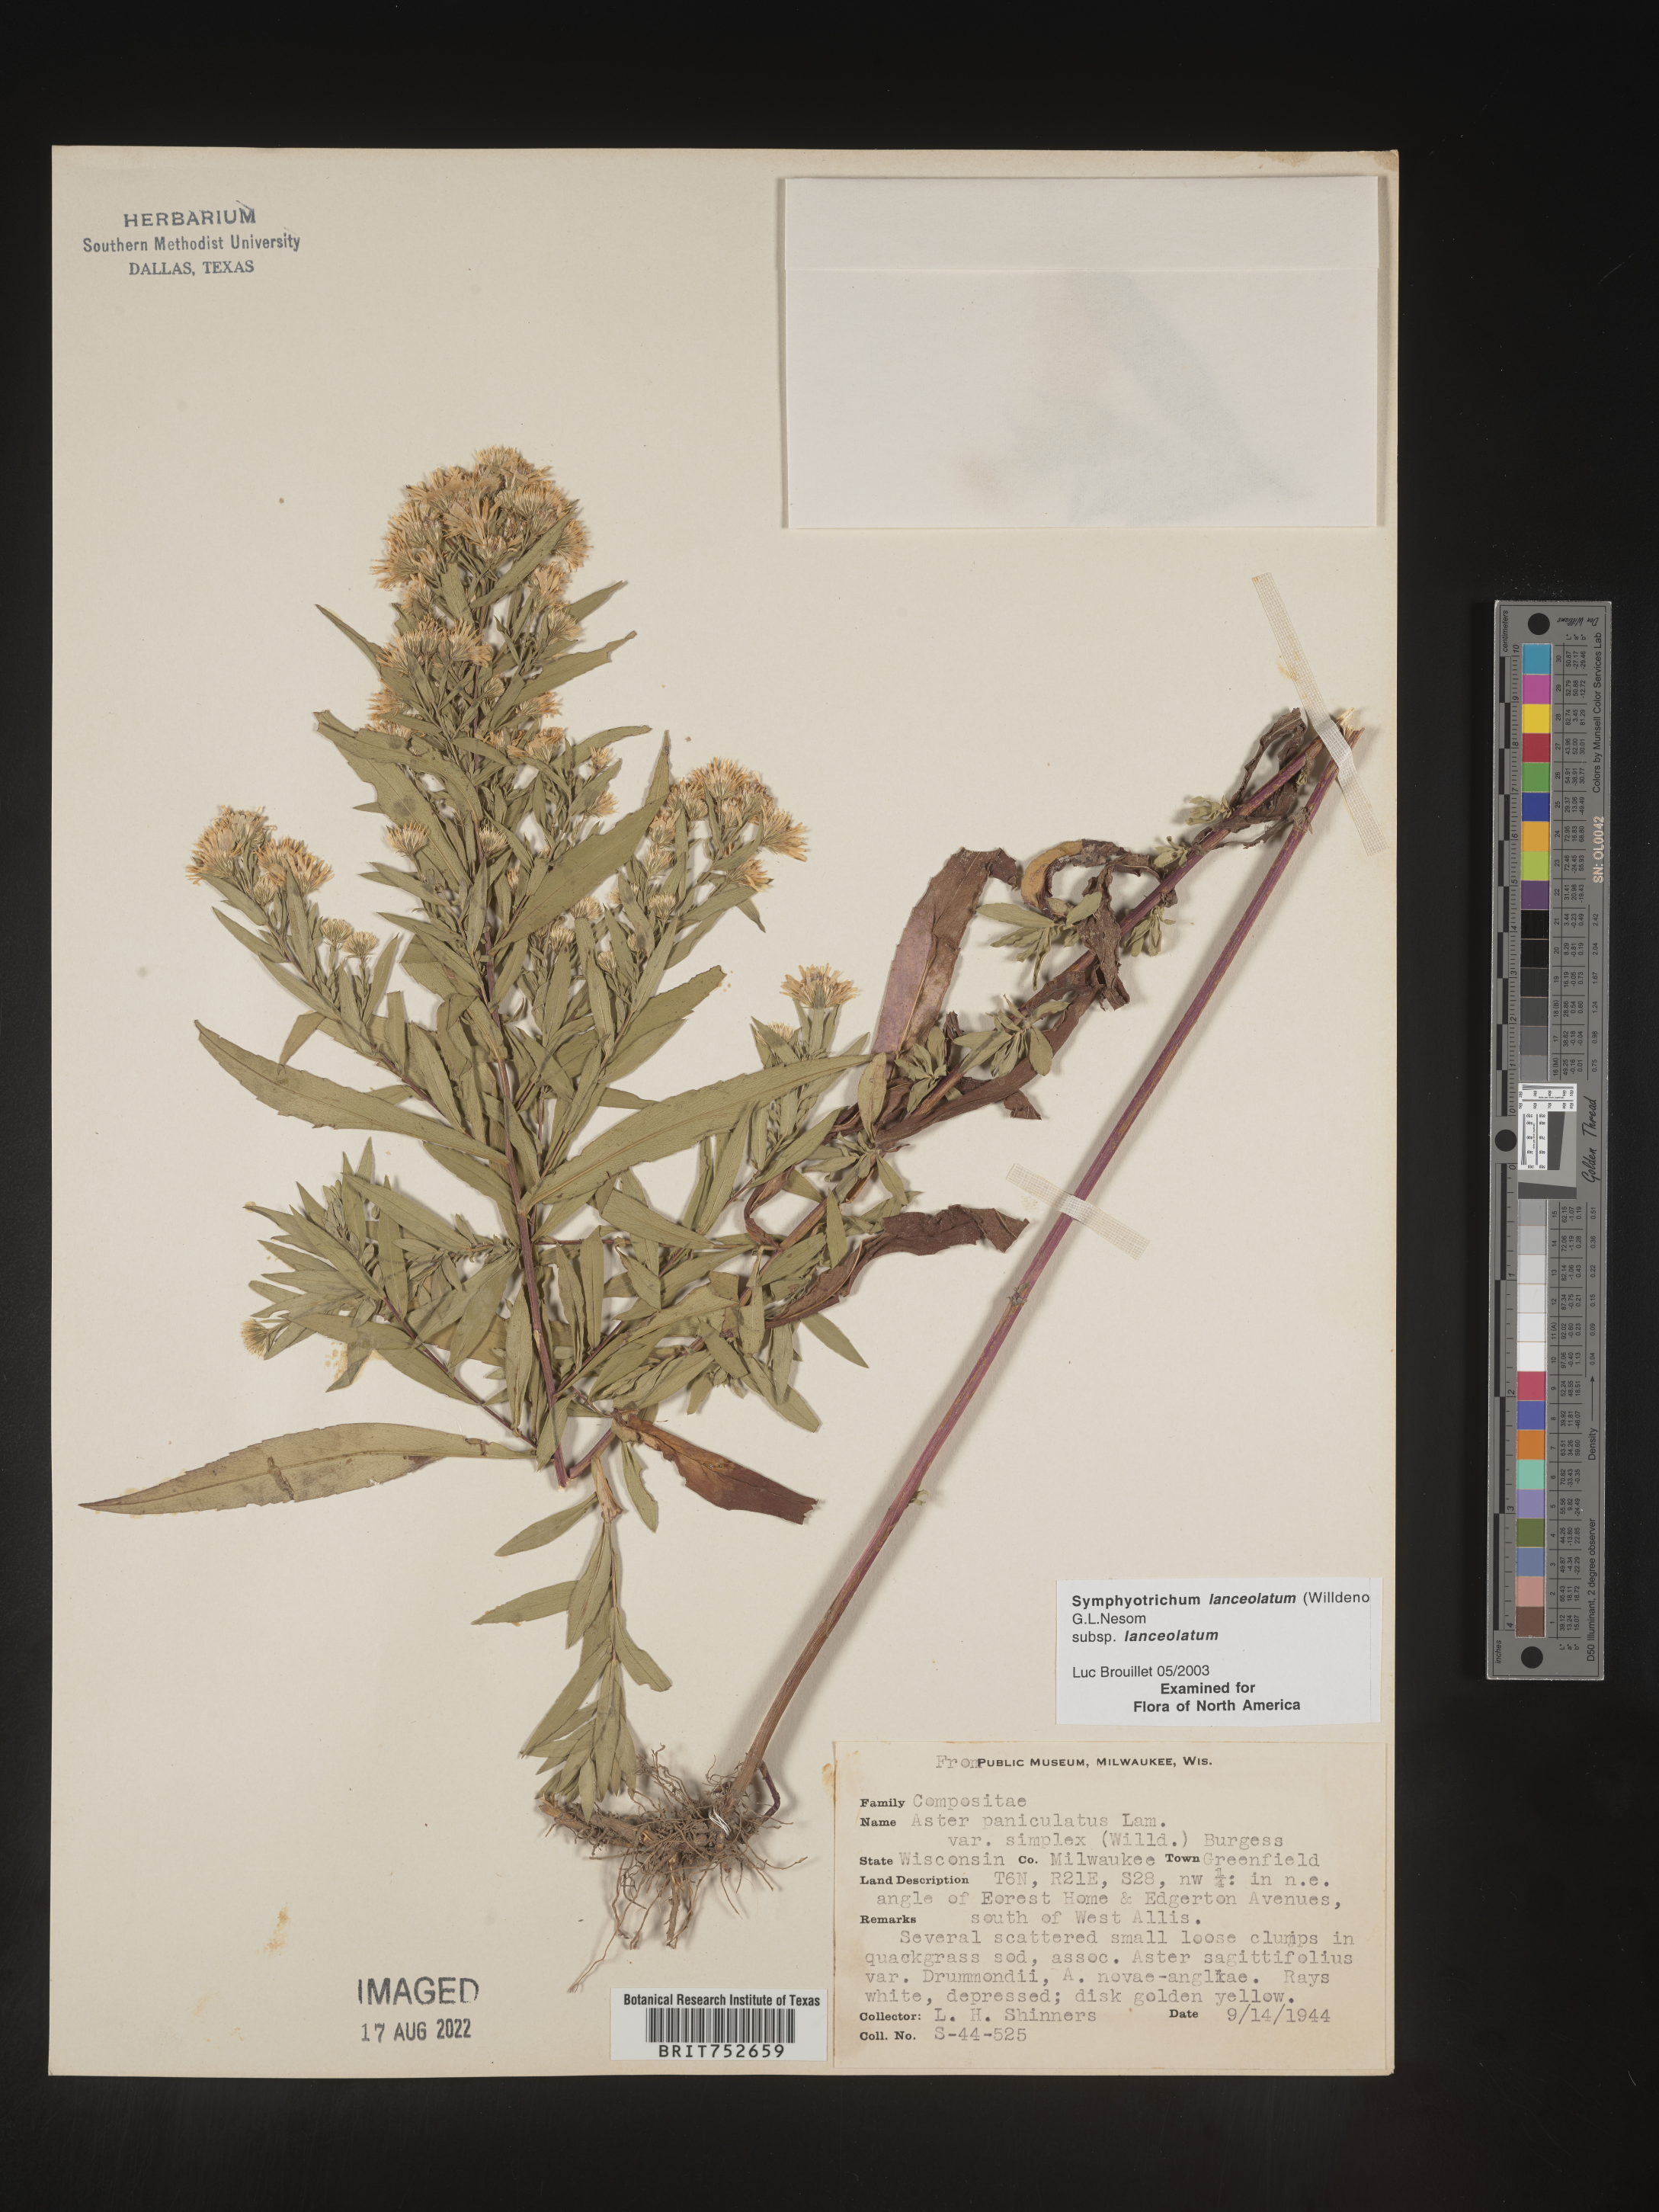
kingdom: Plantae
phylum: Tracheophyta
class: Magnoliopsida
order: Asterales
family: Asteraceae
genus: Symphyotrichum
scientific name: Symphyotrichum lanceolatum
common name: Panicled aster
